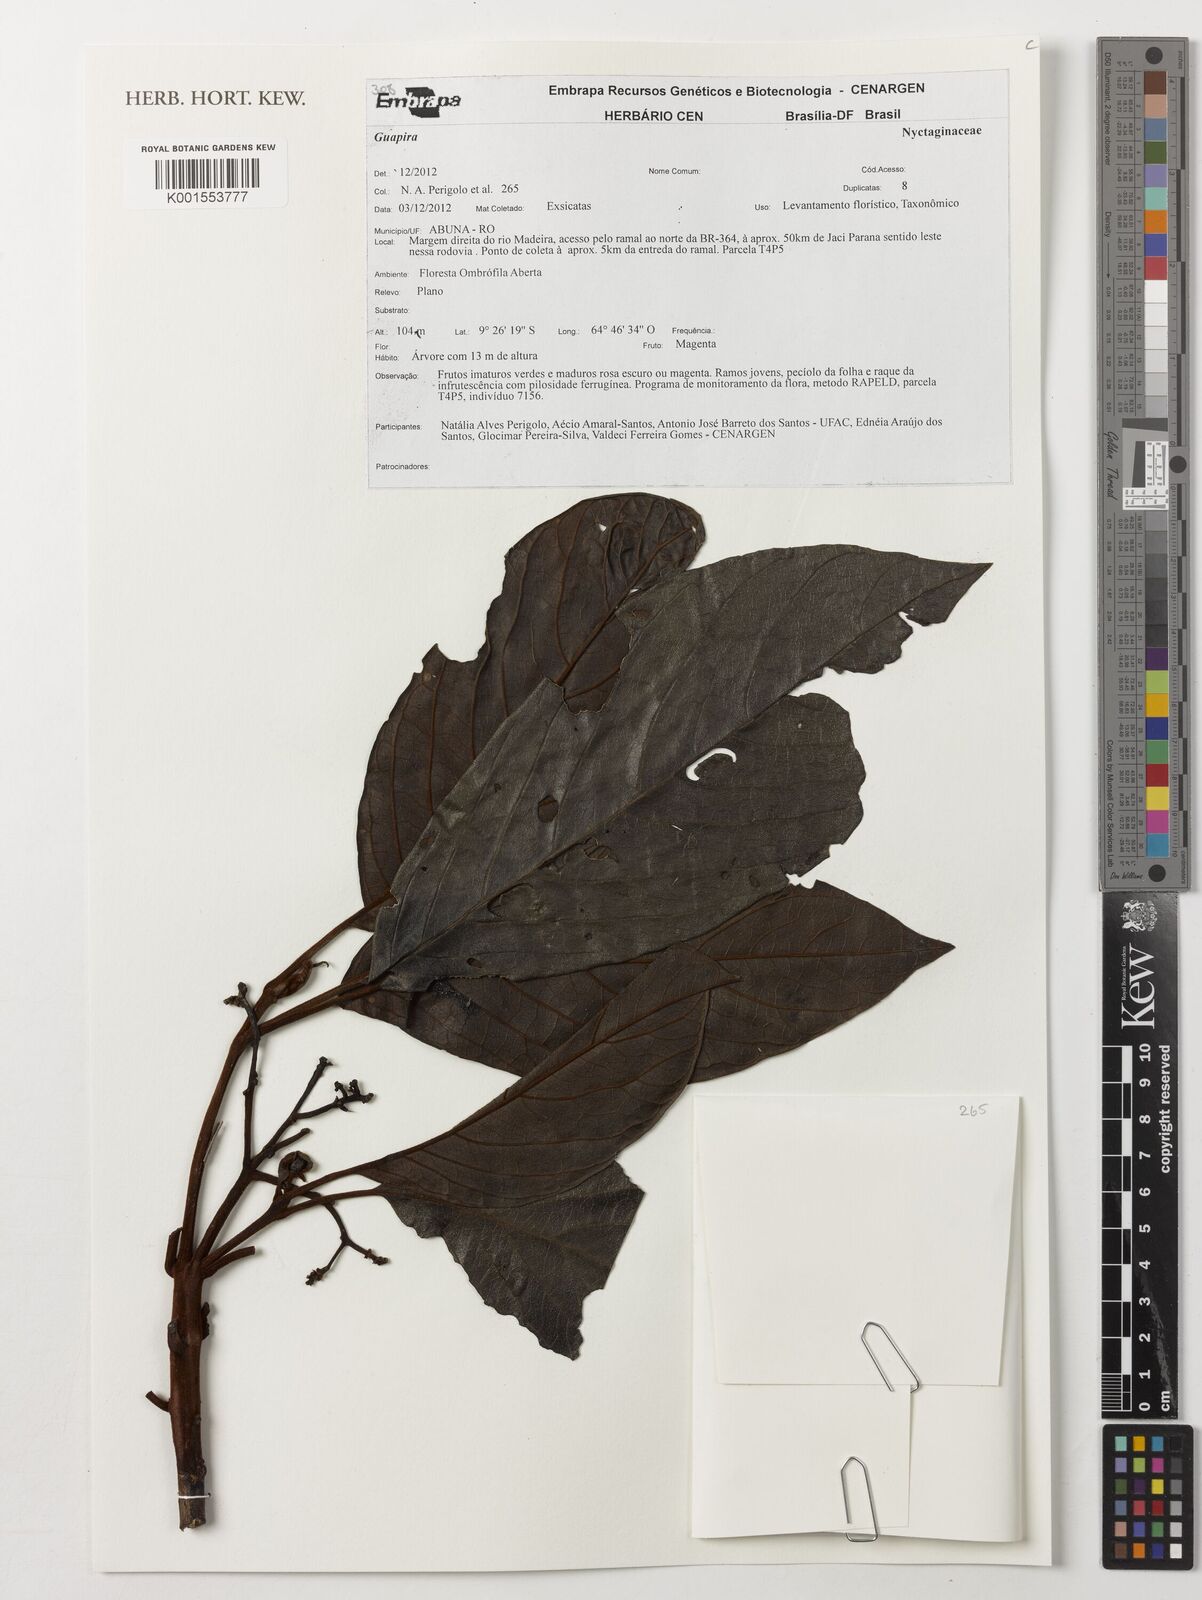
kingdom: Plantae
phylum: Tracheophyta
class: Magnoliopsida
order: Caryophyllales
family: Nyctaginaceae
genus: Guapira
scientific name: Guapira
